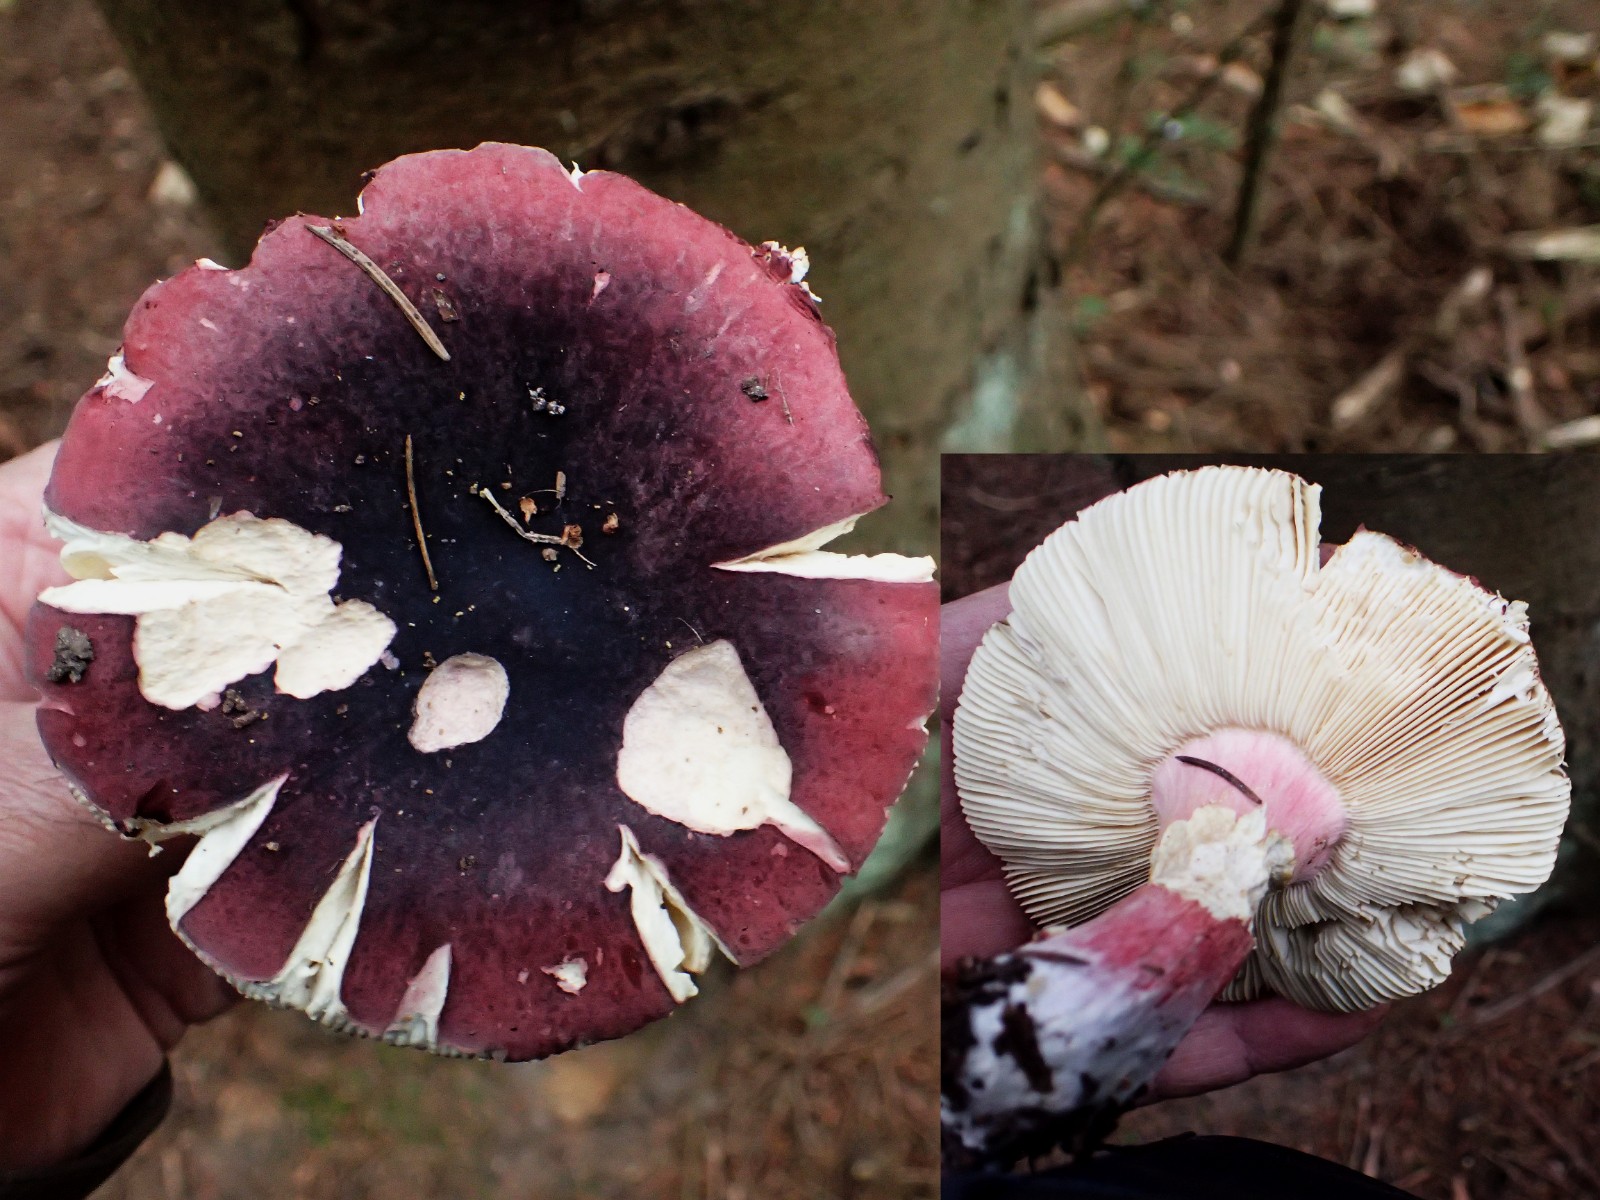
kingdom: Fungi
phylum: Basidiomycota
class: Agaricomycetes
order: Russulales
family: Russulaceae
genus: Russula
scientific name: Russula xerampelina
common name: hummer-skørhat
